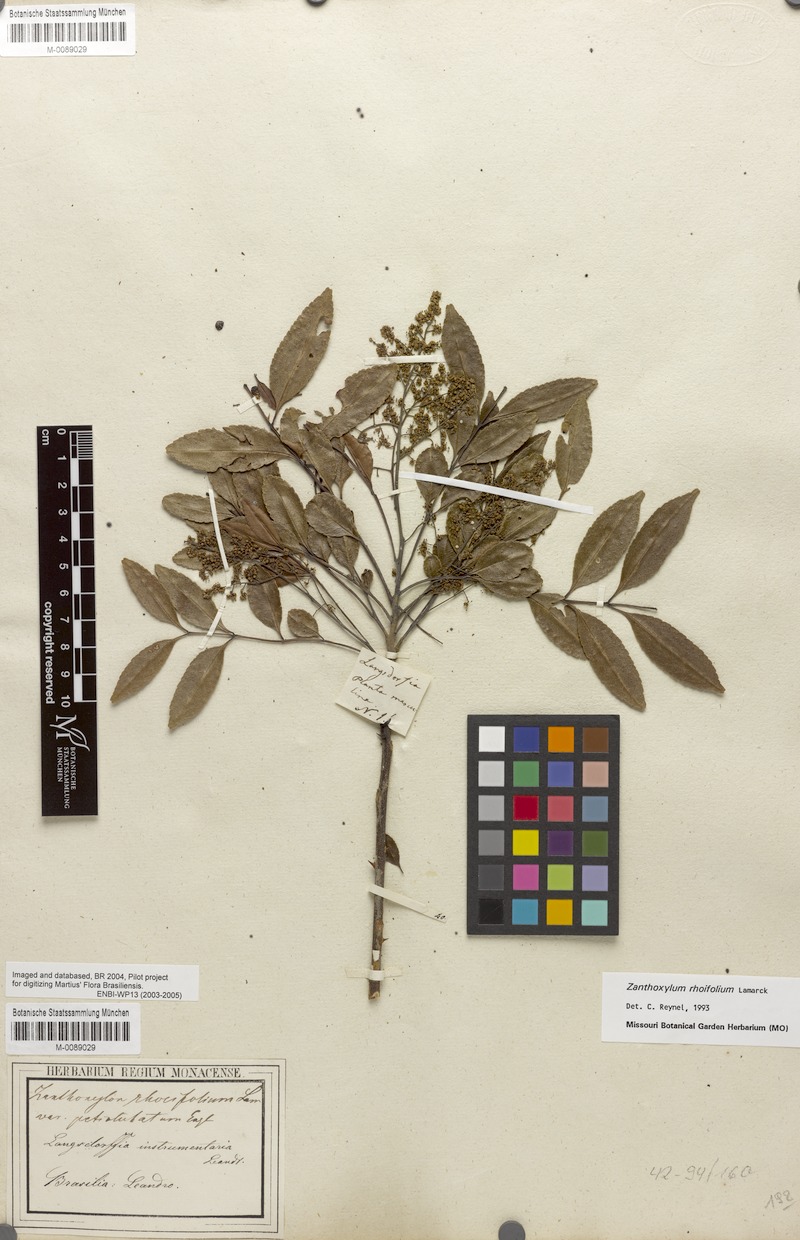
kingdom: Plantae
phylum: Tracheophyta
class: Magnoliopsida
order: Sapindales
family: Rutaceae
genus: Zanthoxylum
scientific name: Zanthoxylum rhoifolium
